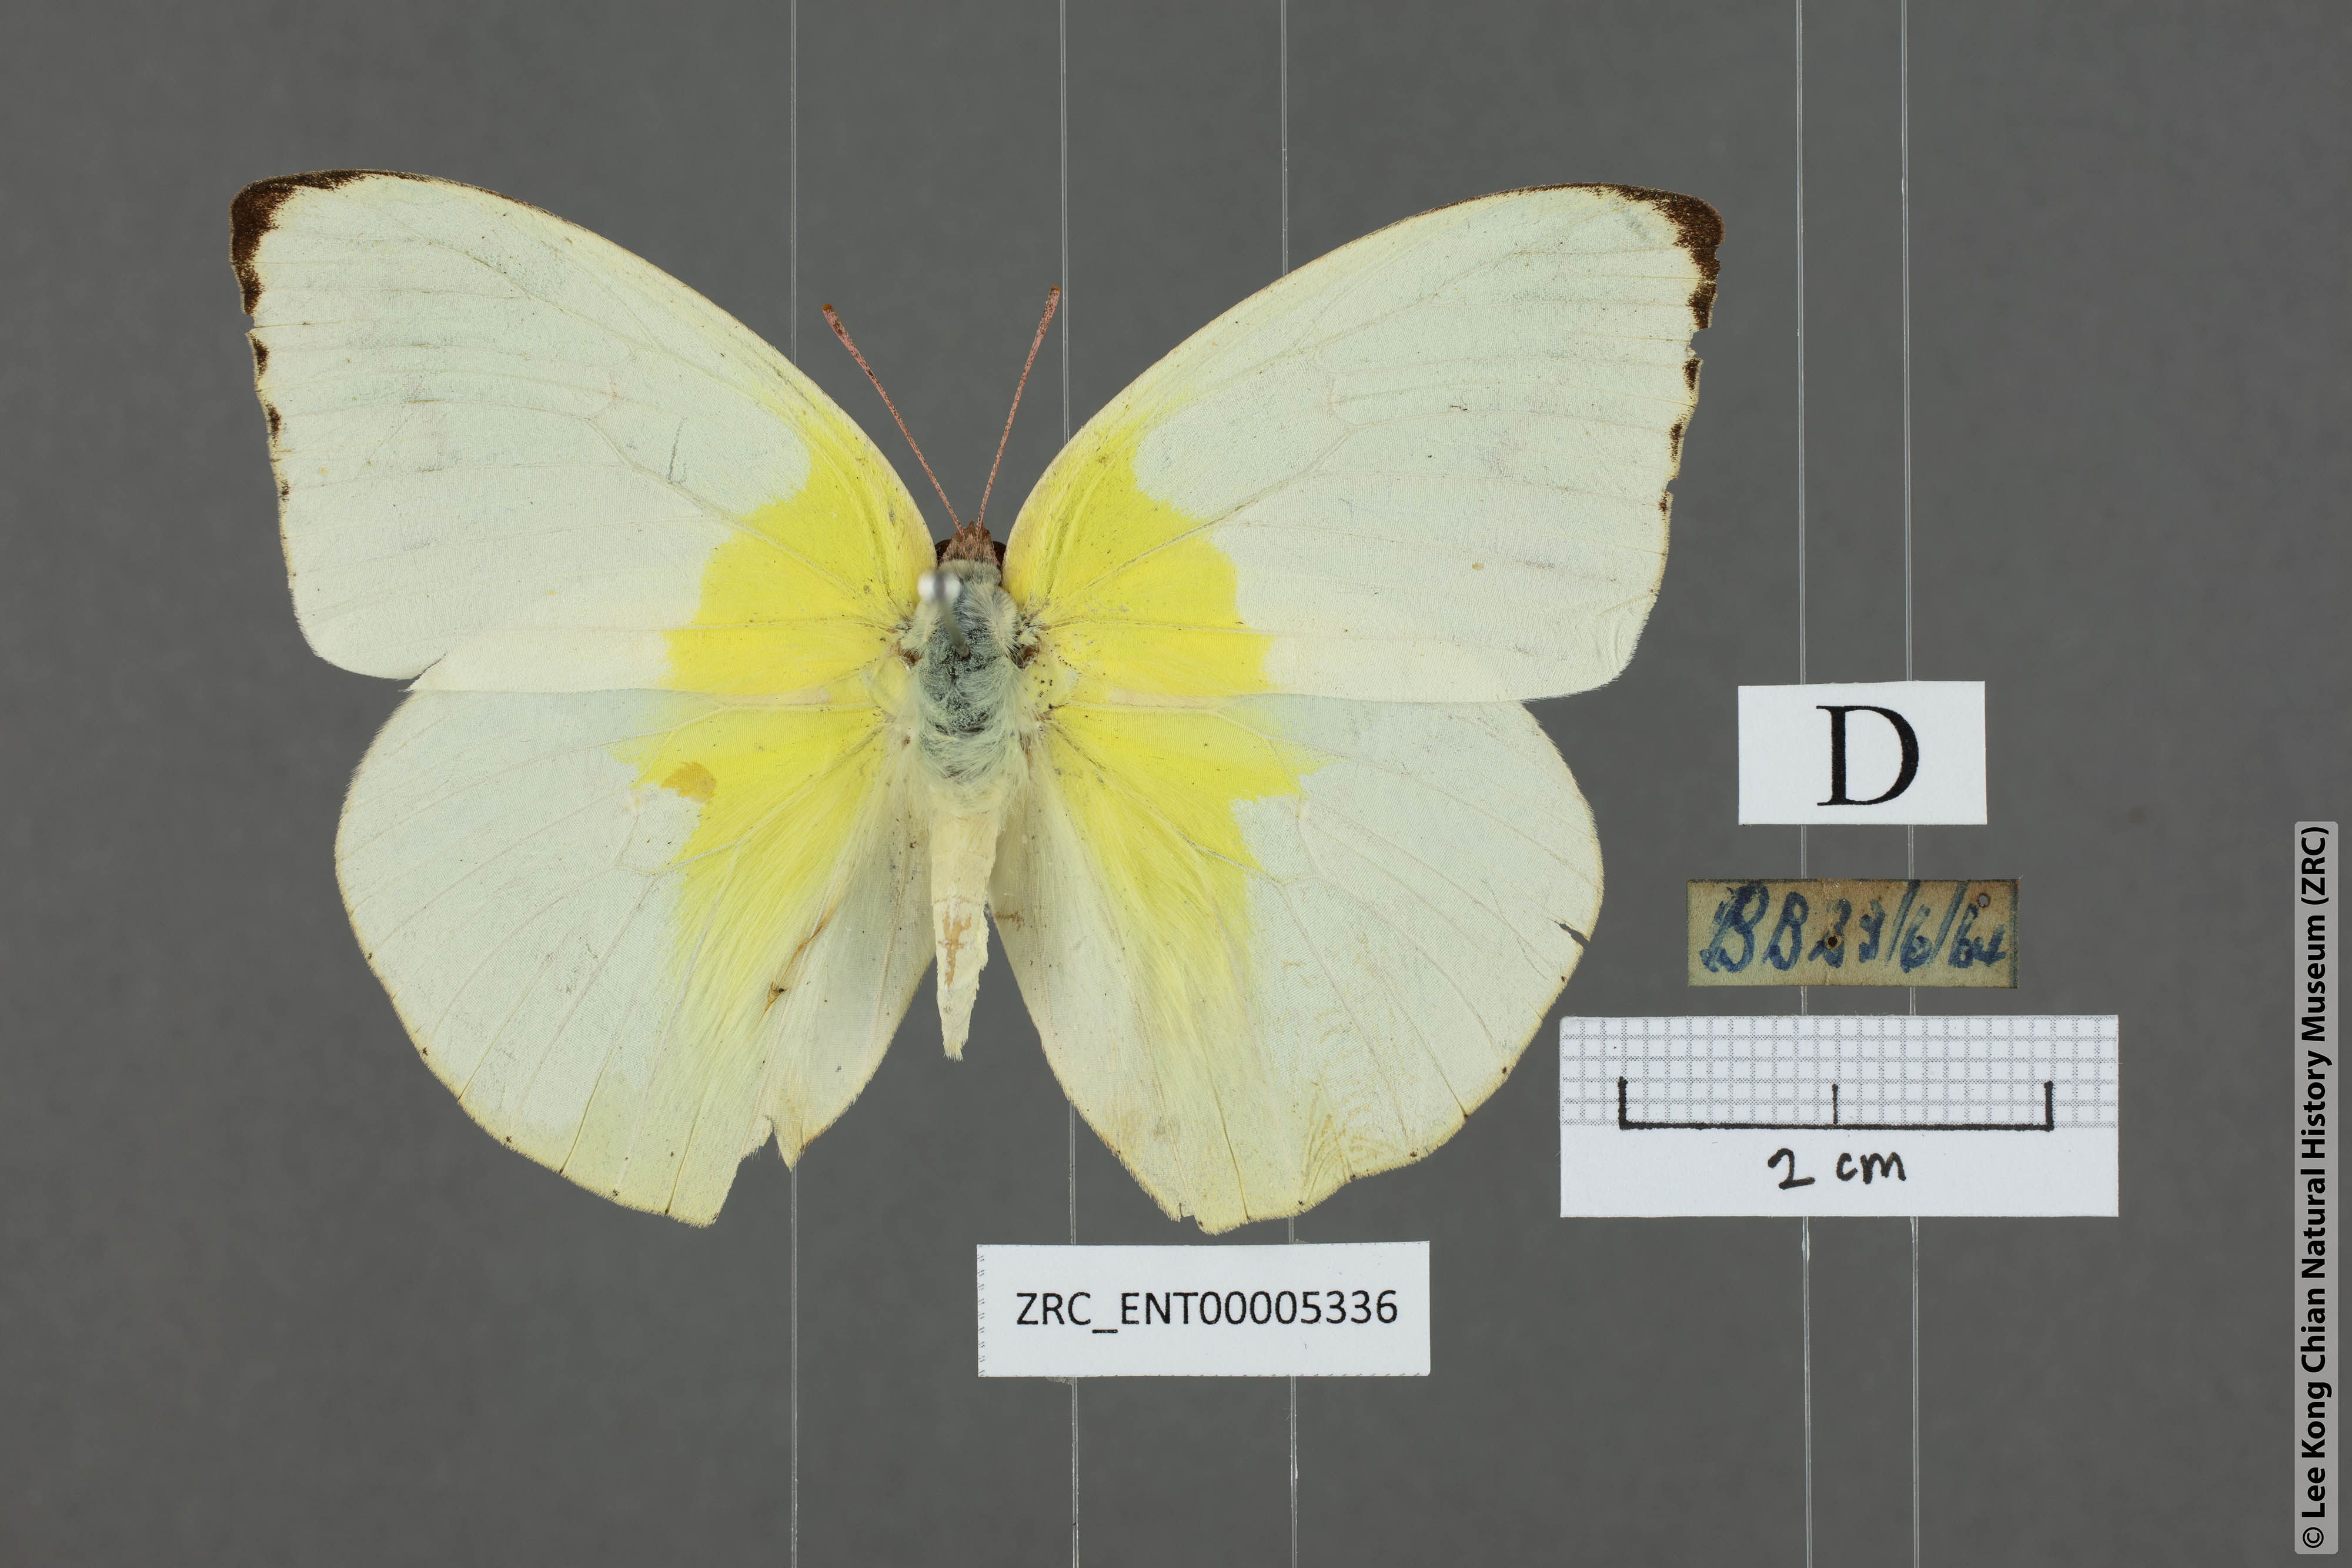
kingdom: Animalia
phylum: Arthropoda
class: Insecta
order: Lepidoptera
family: Pieridae
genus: Catopsilia
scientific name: Catopsilia pomona
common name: Common emigrant
